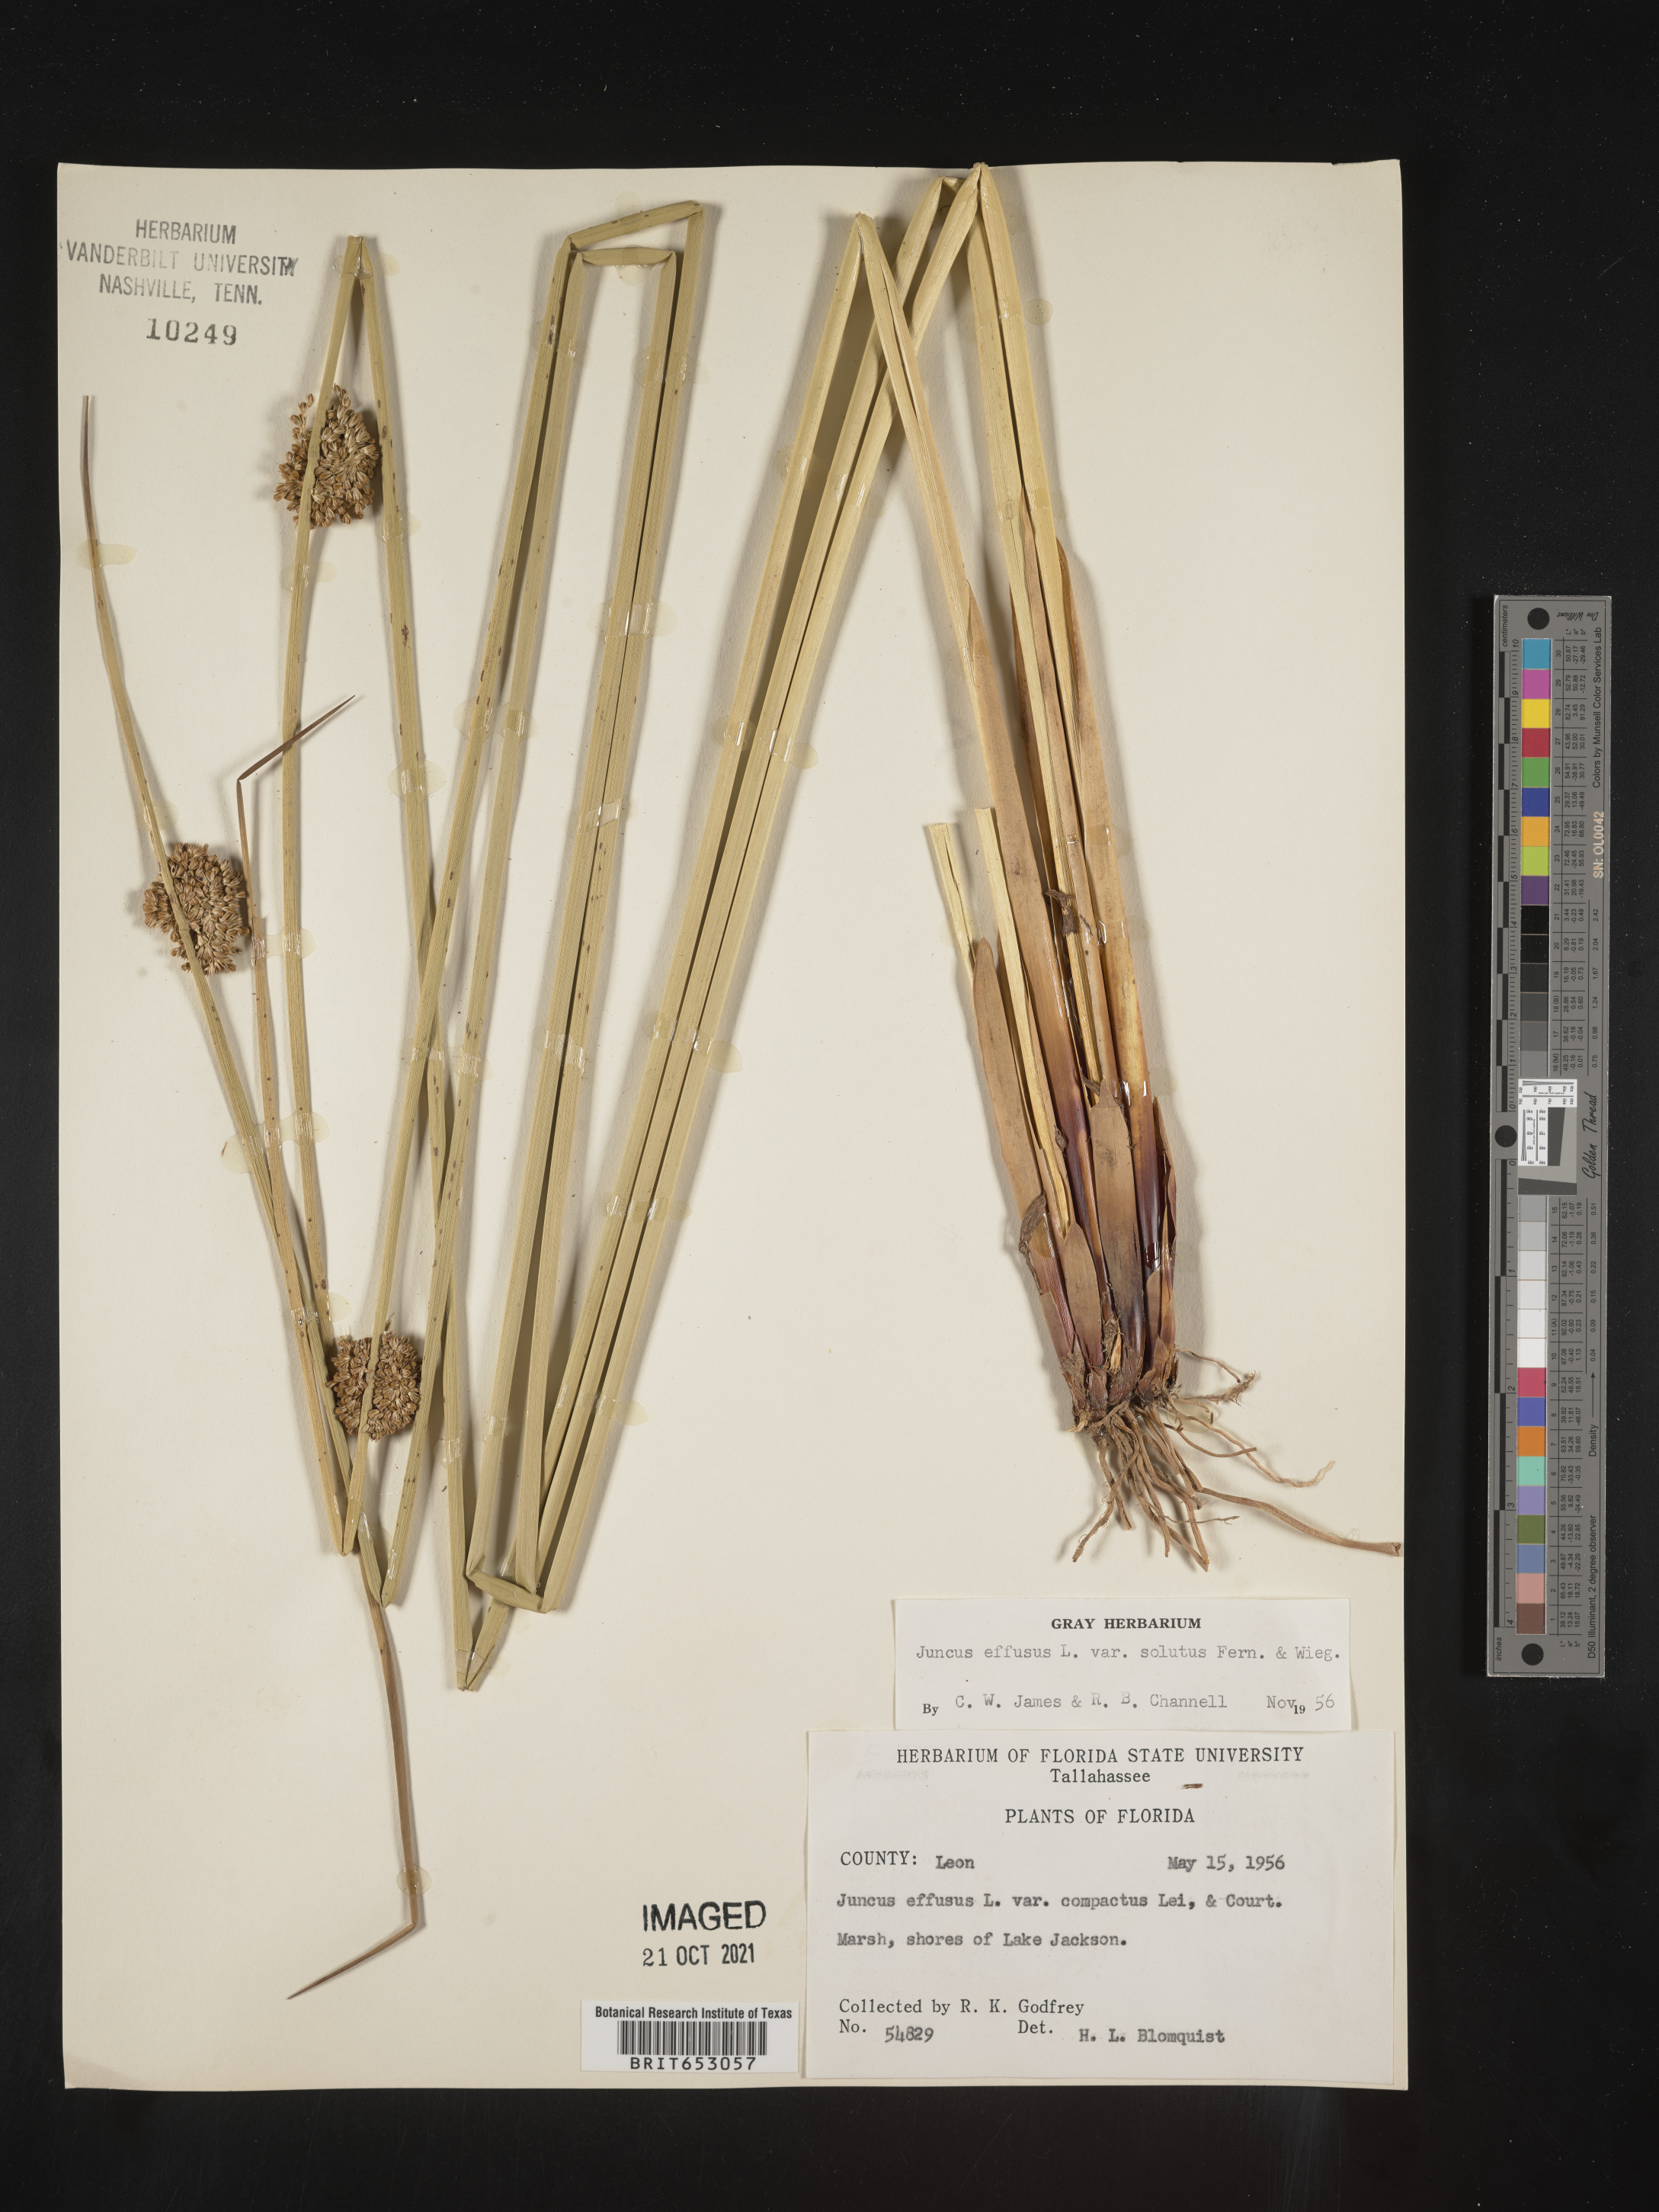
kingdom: Plantae
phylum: Tracheophyta
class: Liliopsida
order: Poales
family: Juncaceae
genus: Juncus
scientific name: Juncus effusus
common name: Soft rush
